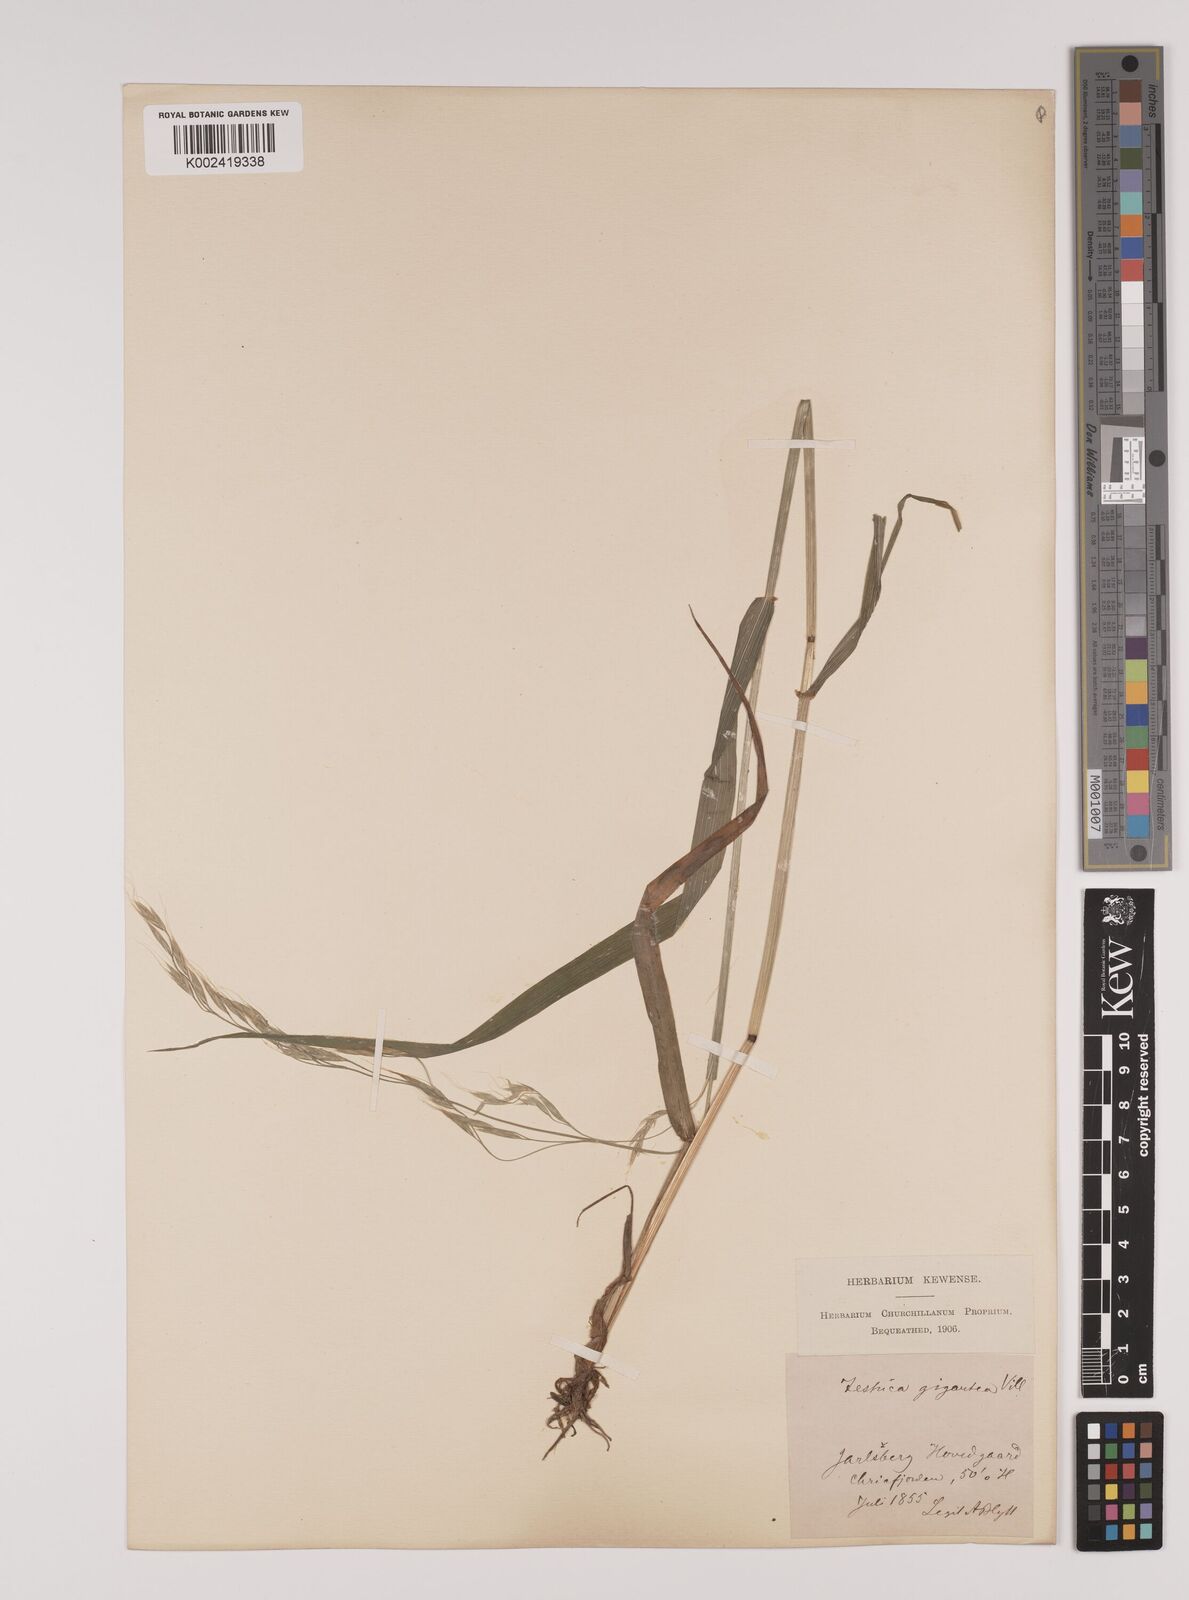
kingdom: Plantae
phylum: Tracheophyta
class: Liliopsida
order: Poales
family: Poaceae
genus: Lolium
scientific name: Lolium giganteum
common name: Giant fescue
